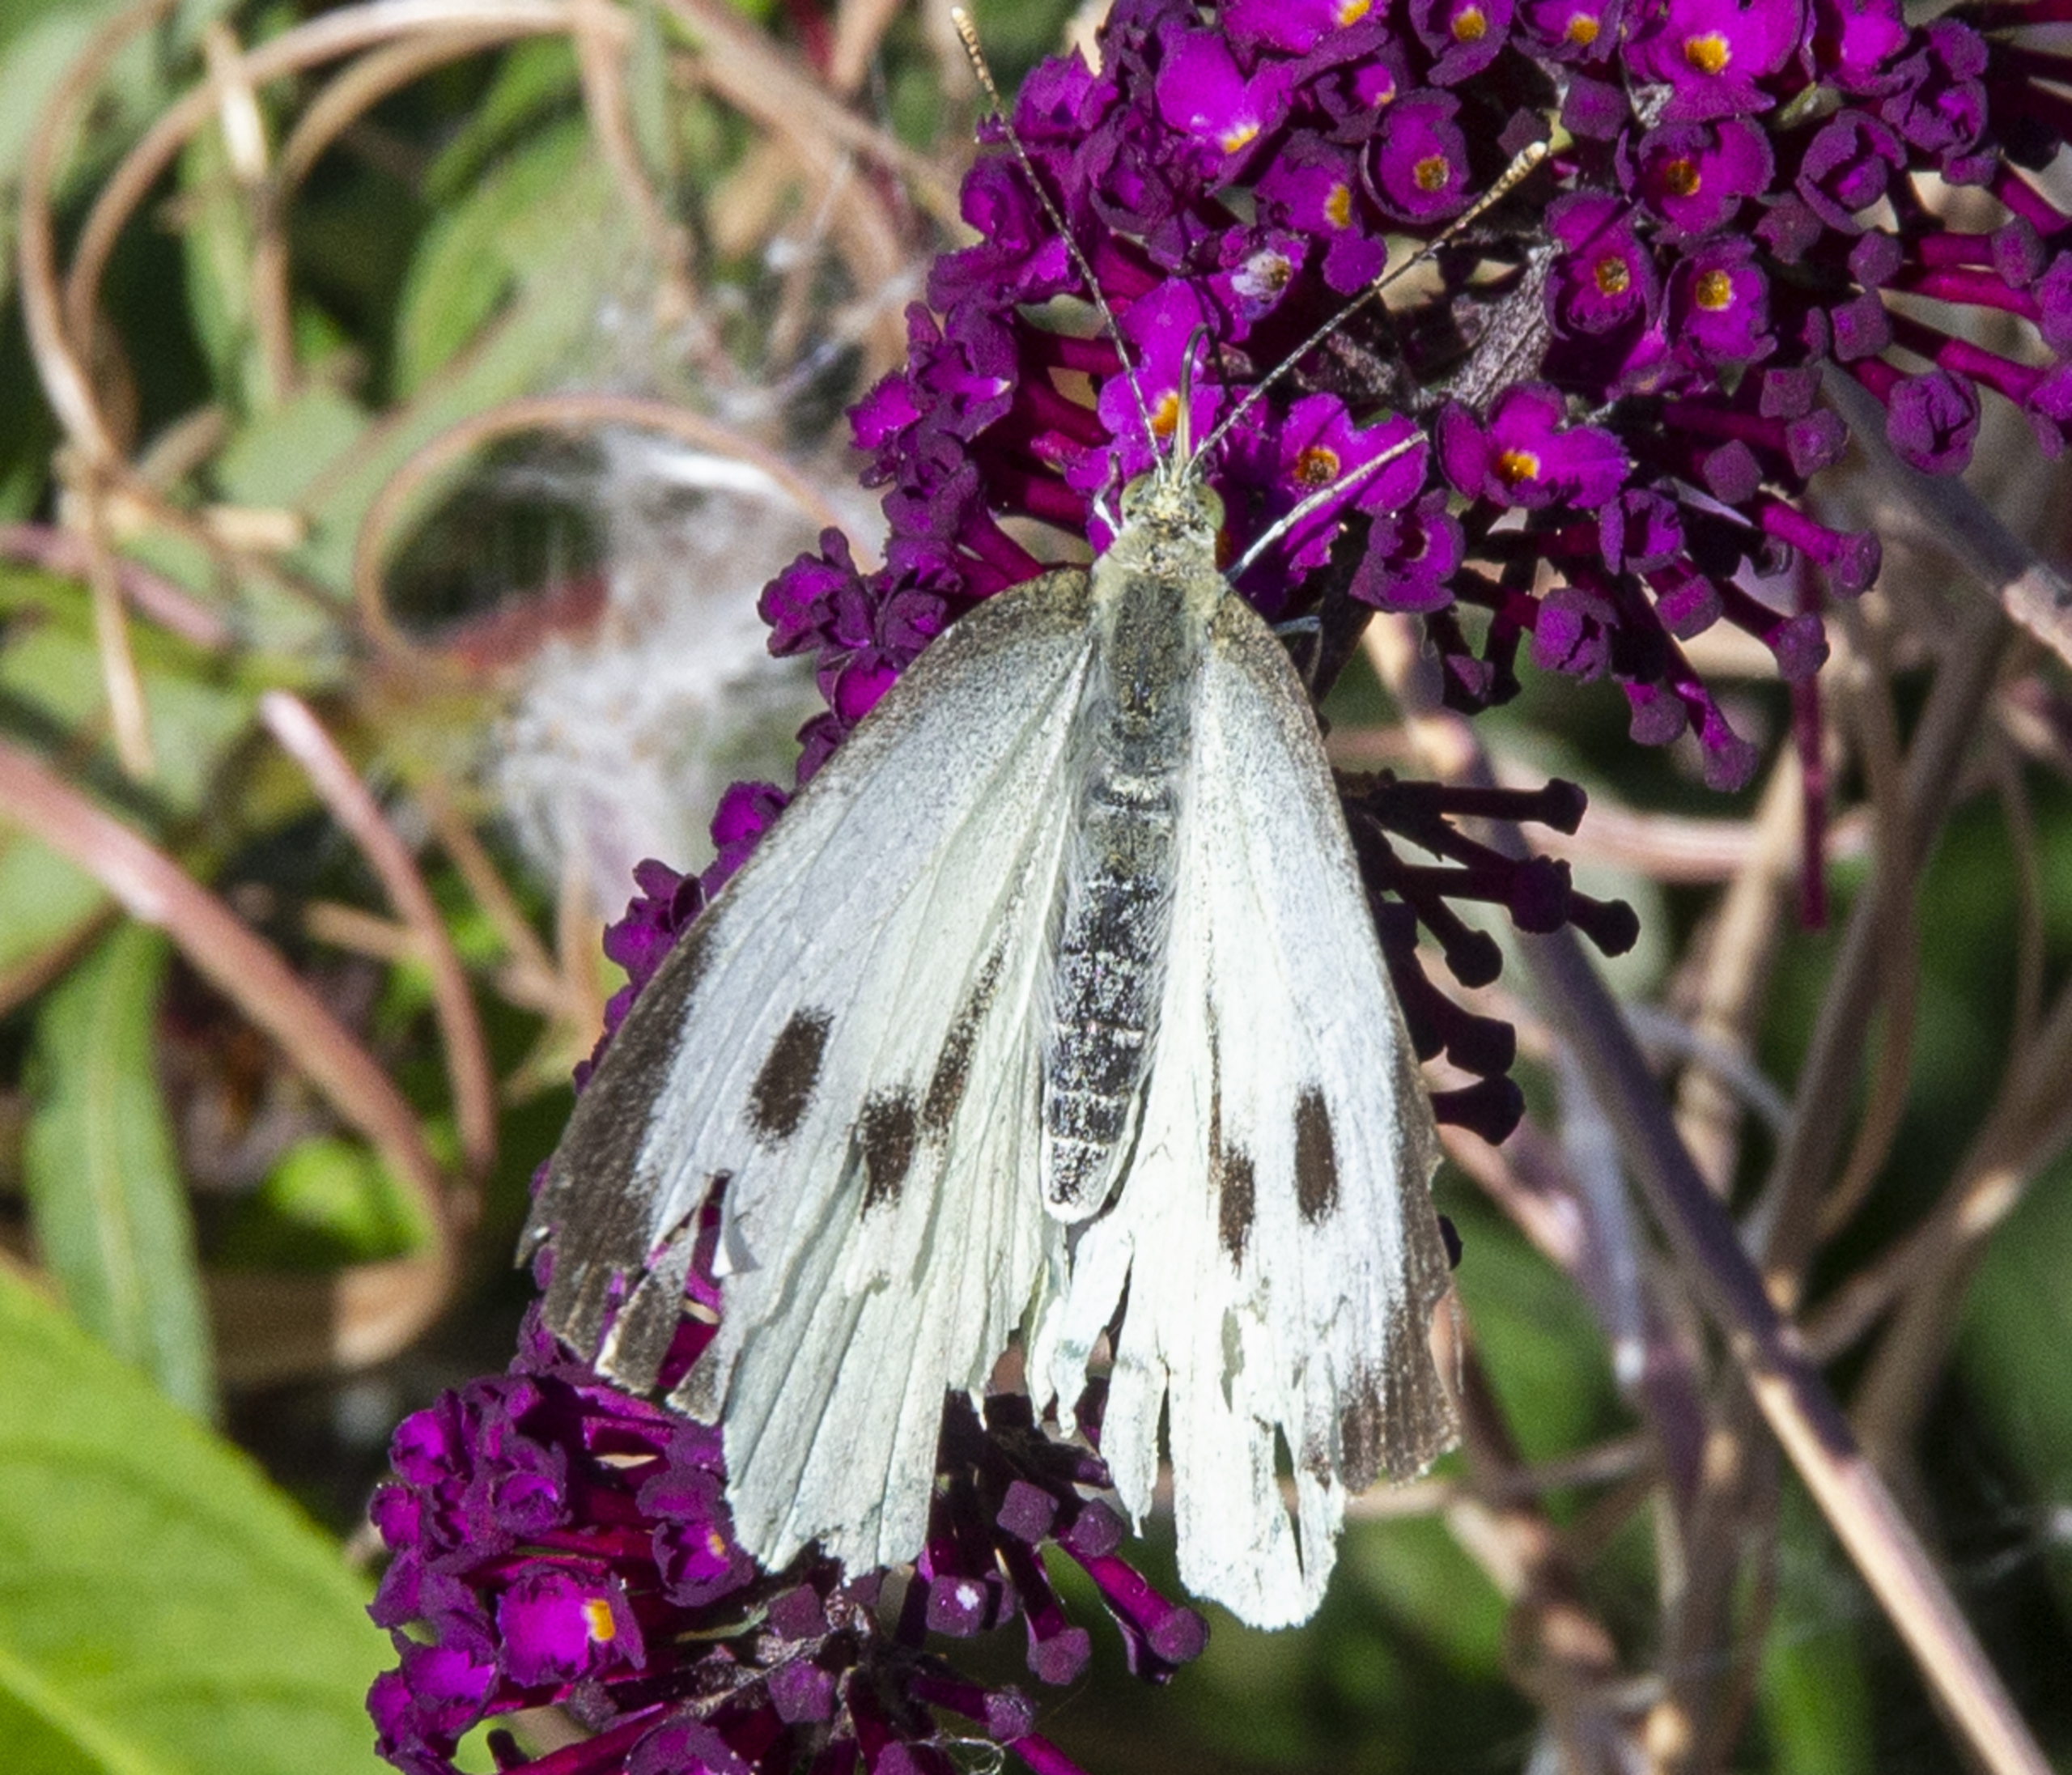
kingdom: Animalia
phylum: Arthropoda
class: Insecta
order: Lepidoptera
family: Pieridae
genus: Pieris
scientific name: Pieris brassicae
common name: Stor kålsommerfugl
